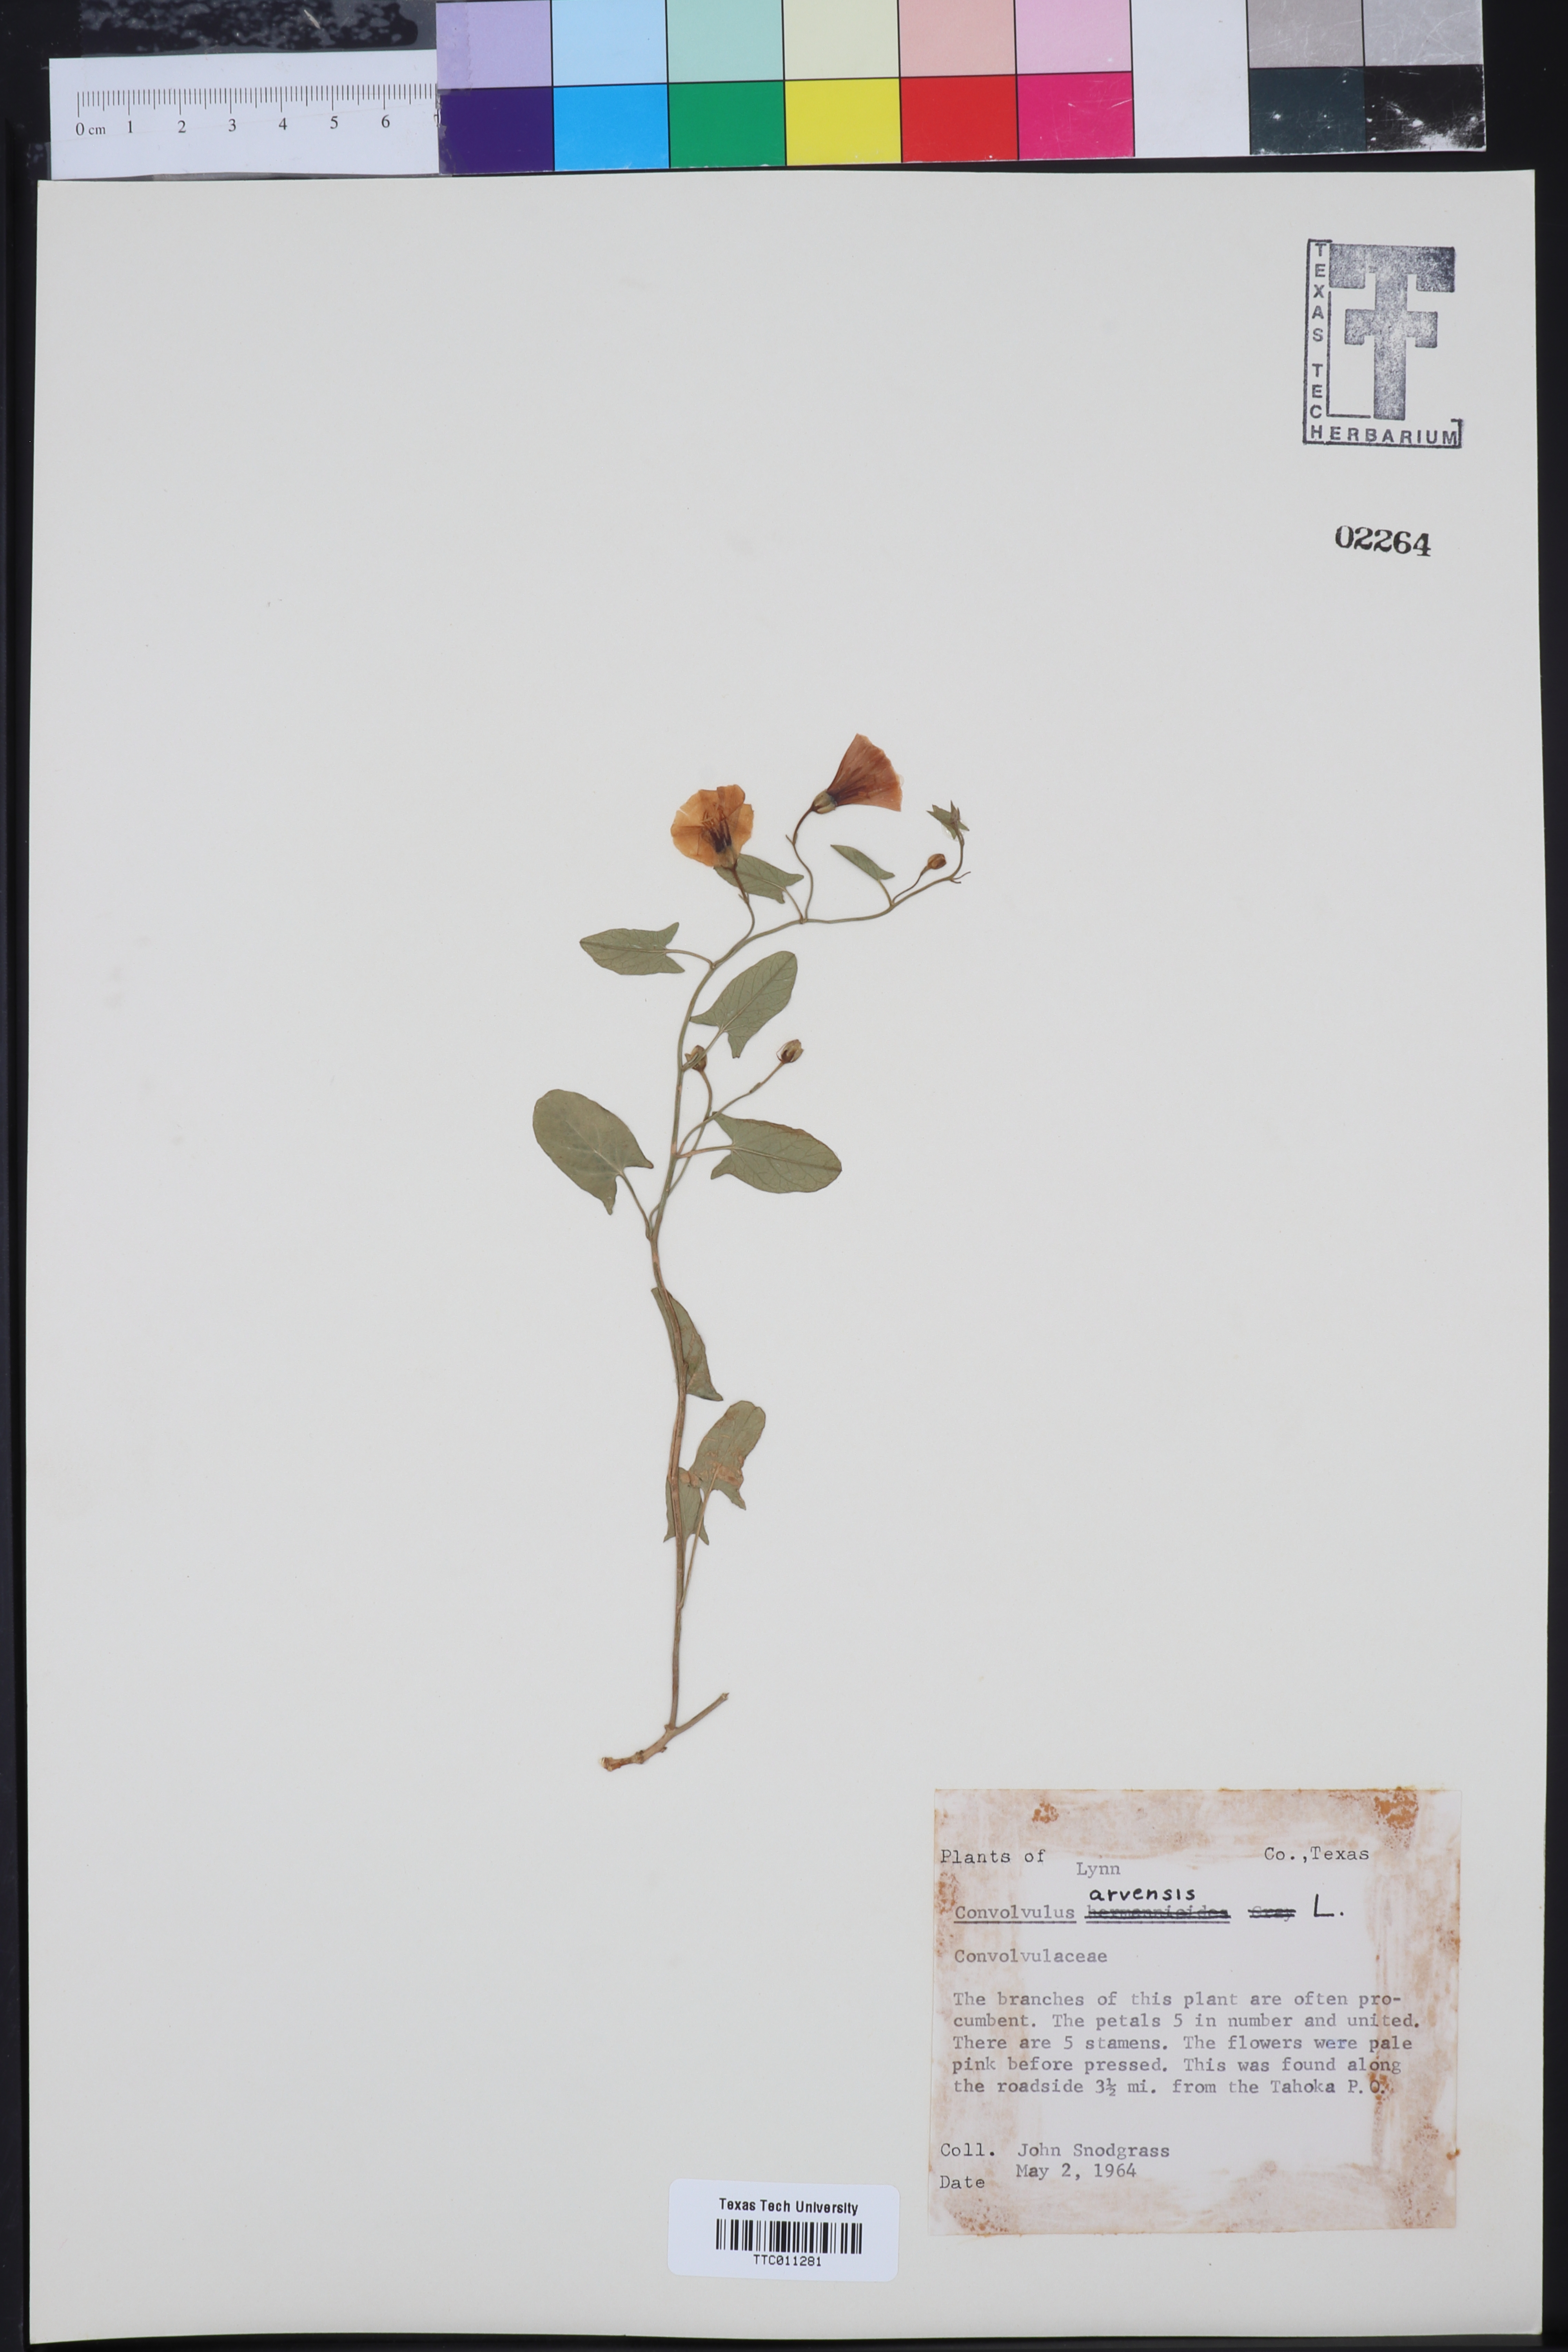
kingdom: Plantae
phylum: Tracheophyta
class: Magnoliopsida
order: Solanales
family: Convolvulaceae
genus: Convolvulus
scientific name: Convolvulus arvensis
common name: Field bindweed
